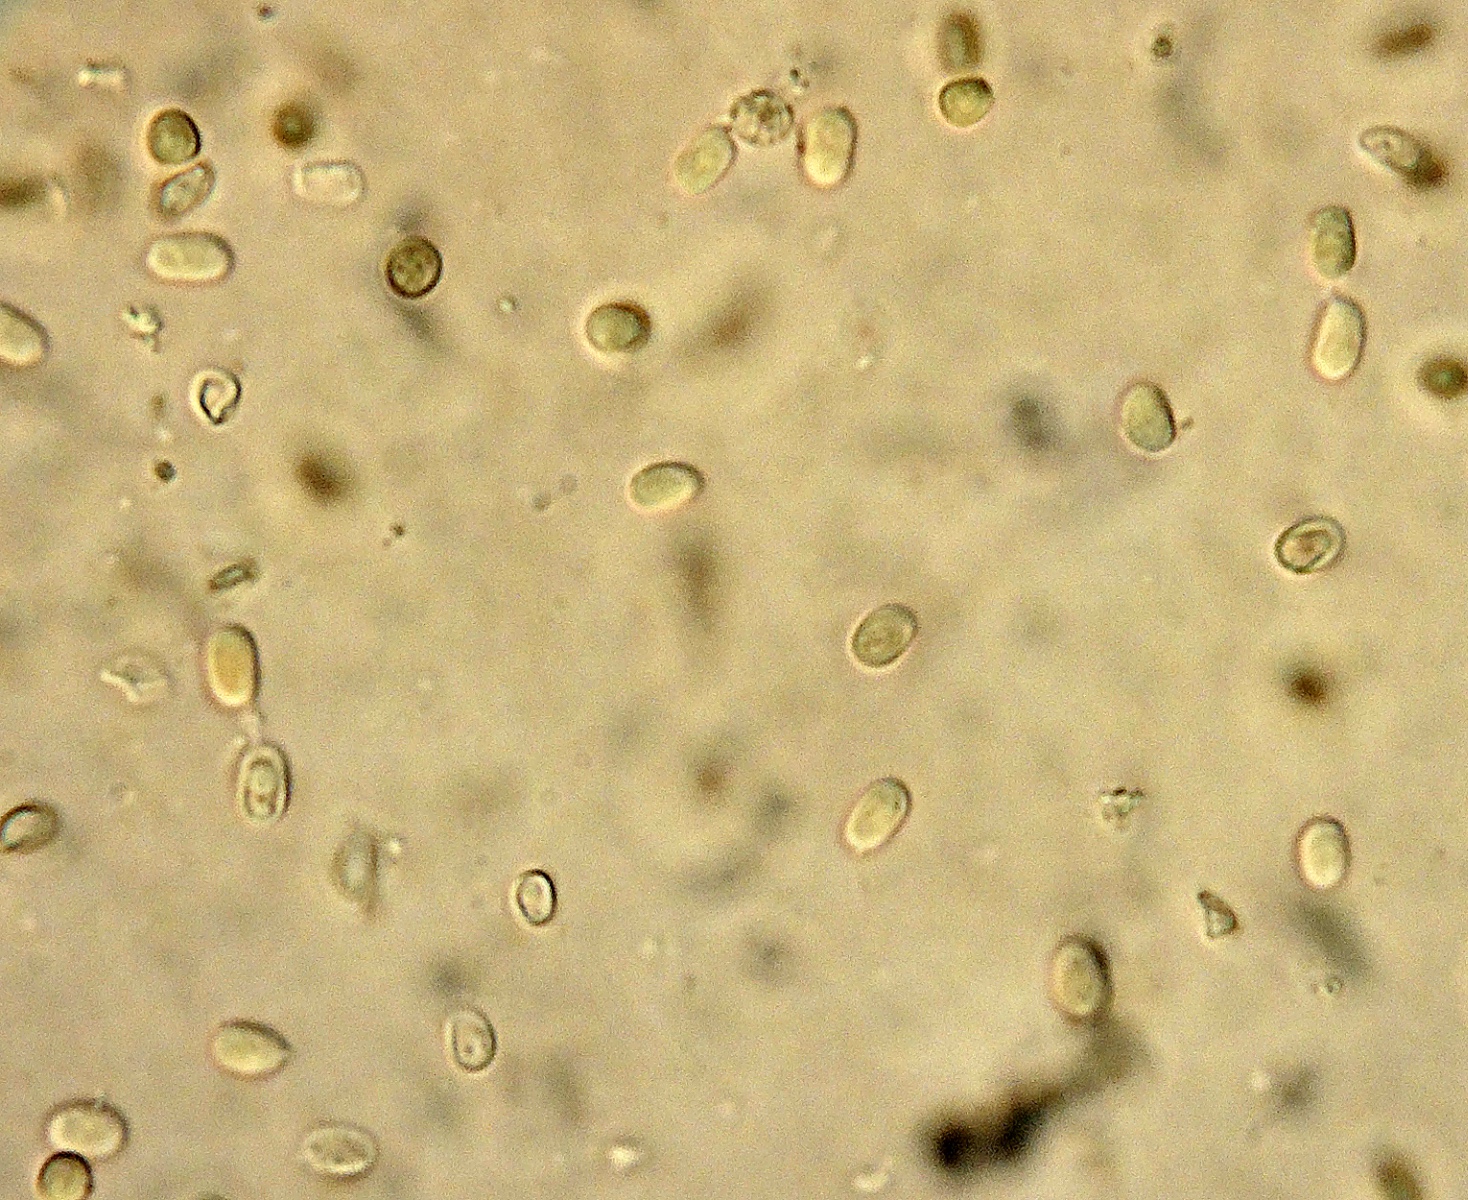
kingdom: Fungi
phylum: Basidiomycota
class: Agaricomycetes
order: Boletales
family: Hygrophoropsidaceae
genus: Leucogyrophana
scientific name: Leucogyrophana sororia
